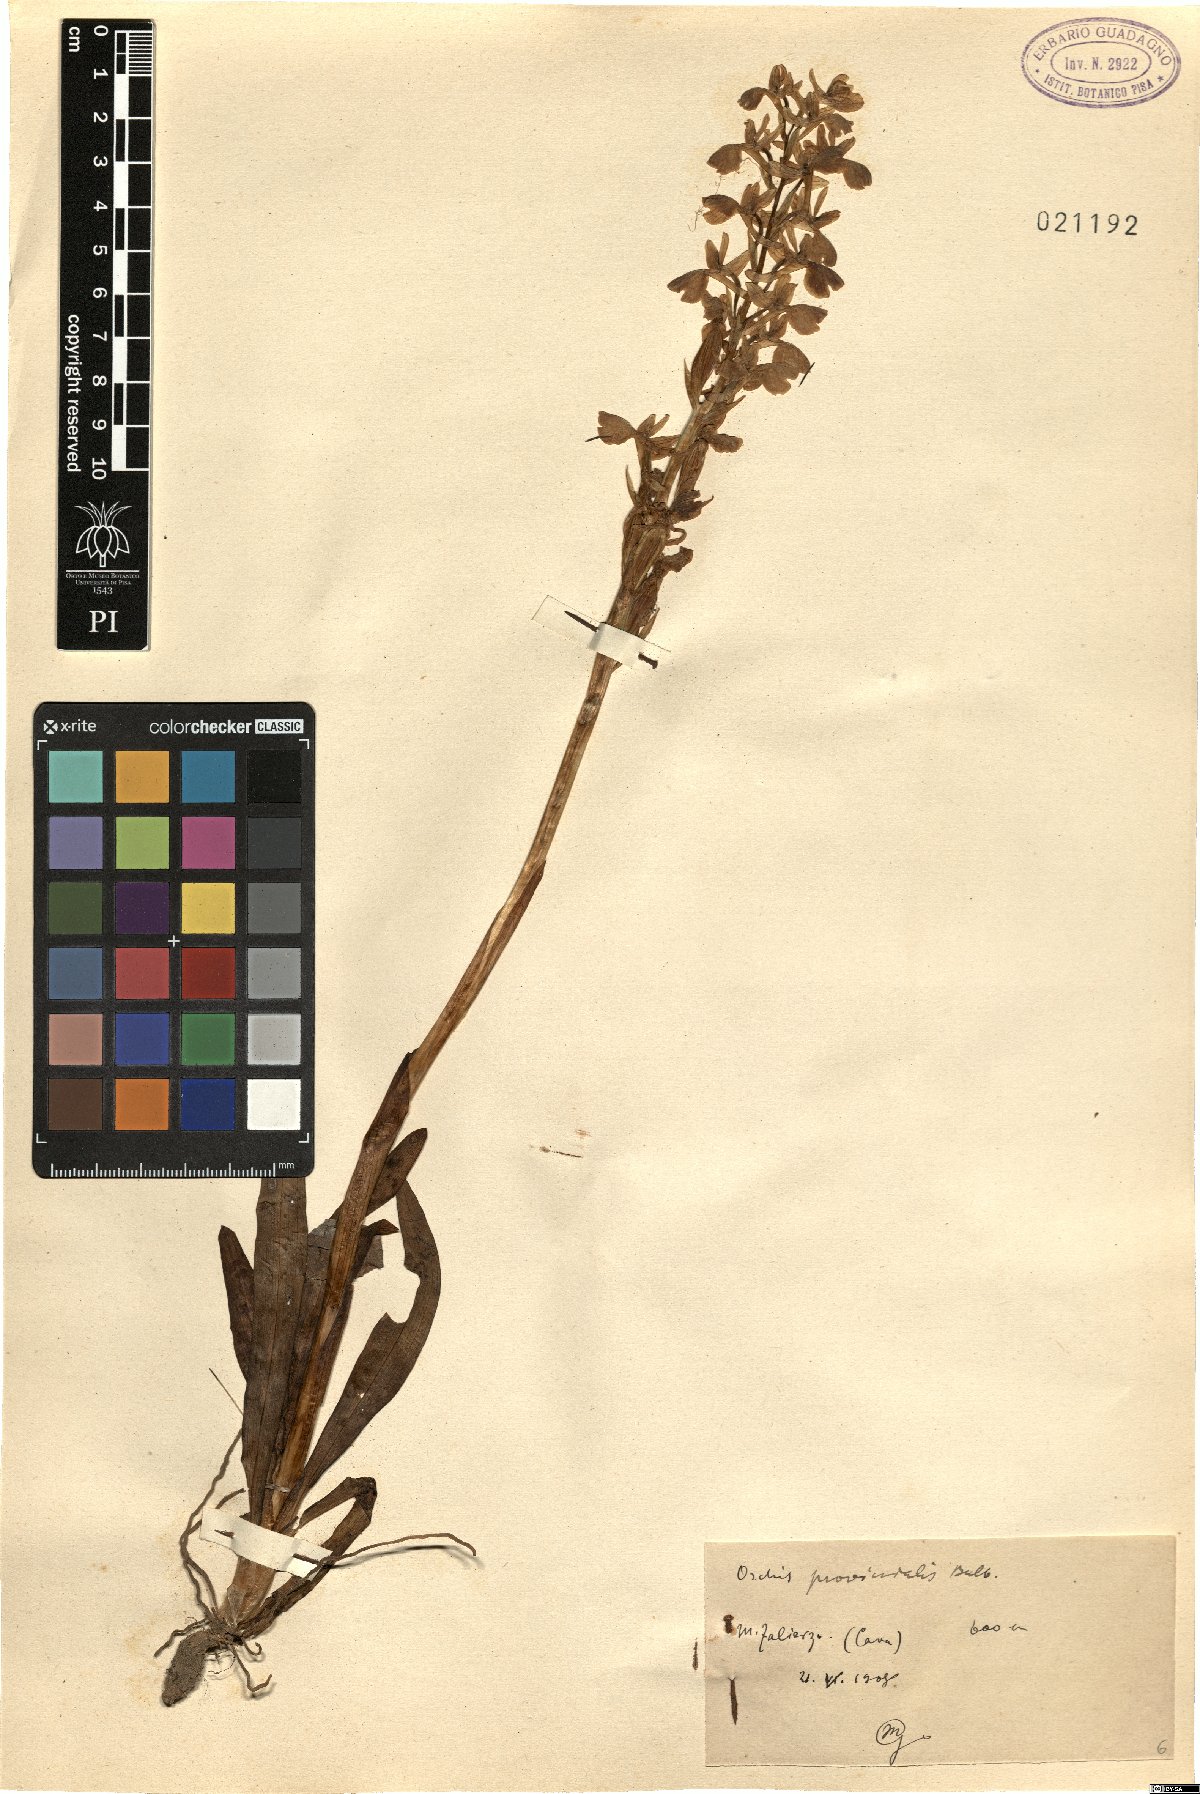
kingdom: Plantae
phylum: Tracheophyta
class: Liliopsida
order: Asparagales
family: Orchidaceae
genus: Orchis
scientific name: Orchis provincialis
